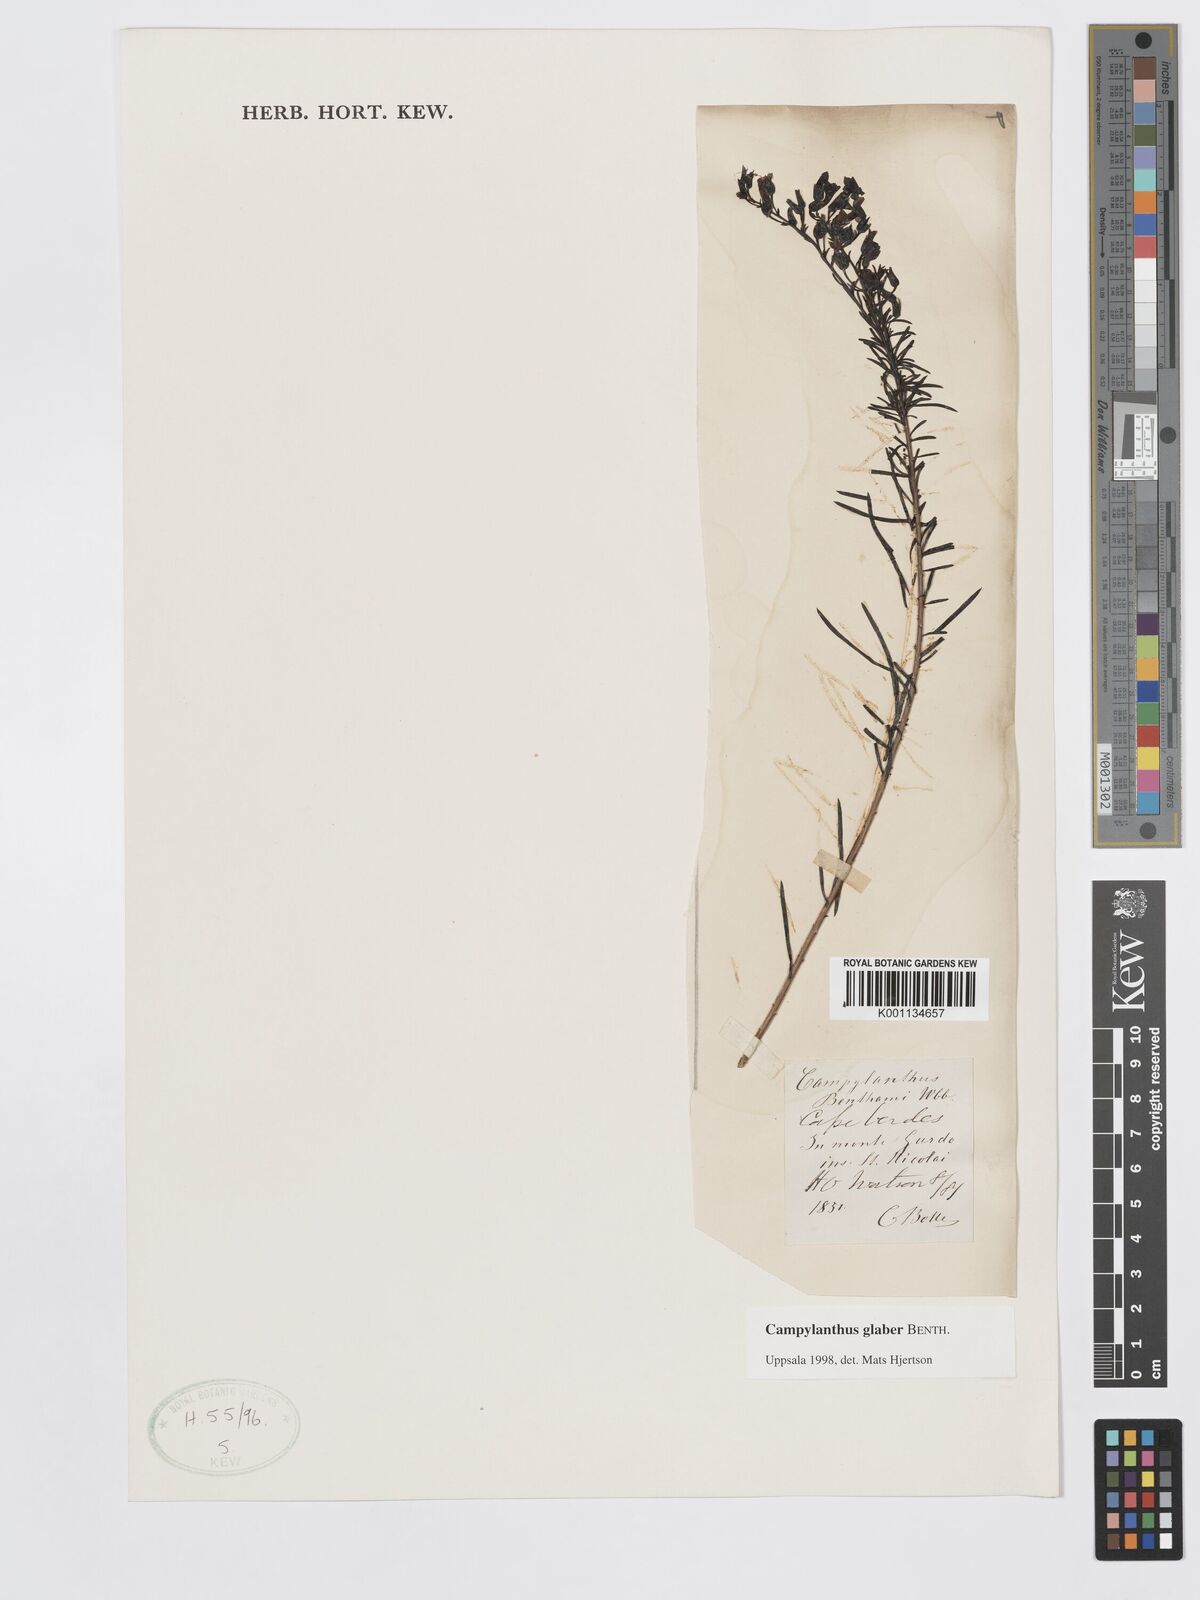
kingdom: Plantae
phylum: Tracheophyta
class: Magnoliopsida
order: Lamiales
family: Plantaginaceae
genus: Campylanthus
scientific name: Campylanthus glaber
